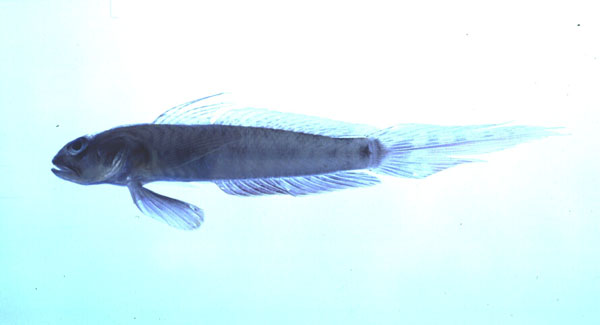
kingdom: Animalia
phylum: Chordata
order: Perciformes
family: Gobiidae
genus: Oxyurichthys
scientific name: Oxyurichthys ophthalmonema
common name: Eyebrow goby
